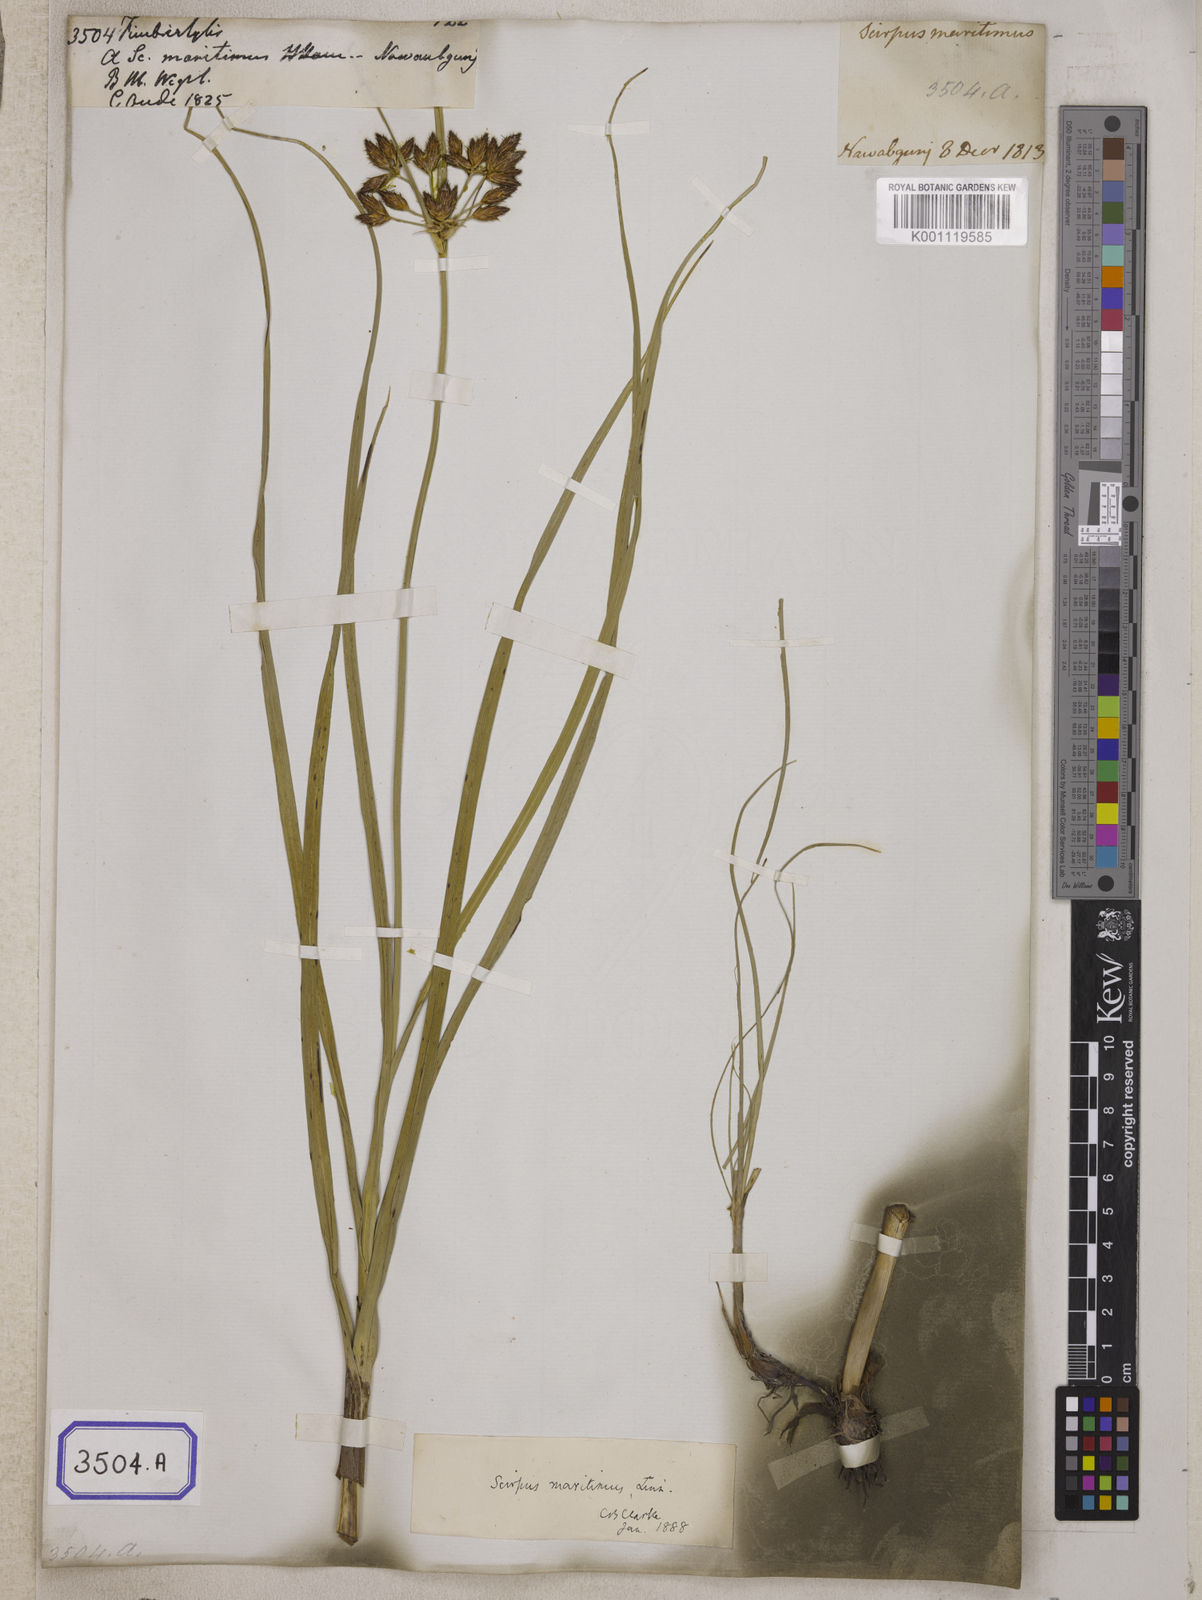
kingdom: Plantae
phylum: Tracheophyta
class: Liliopsida
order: Poales
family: Cyperaceae
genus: Fimbristylis
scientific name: Fimbristylis
